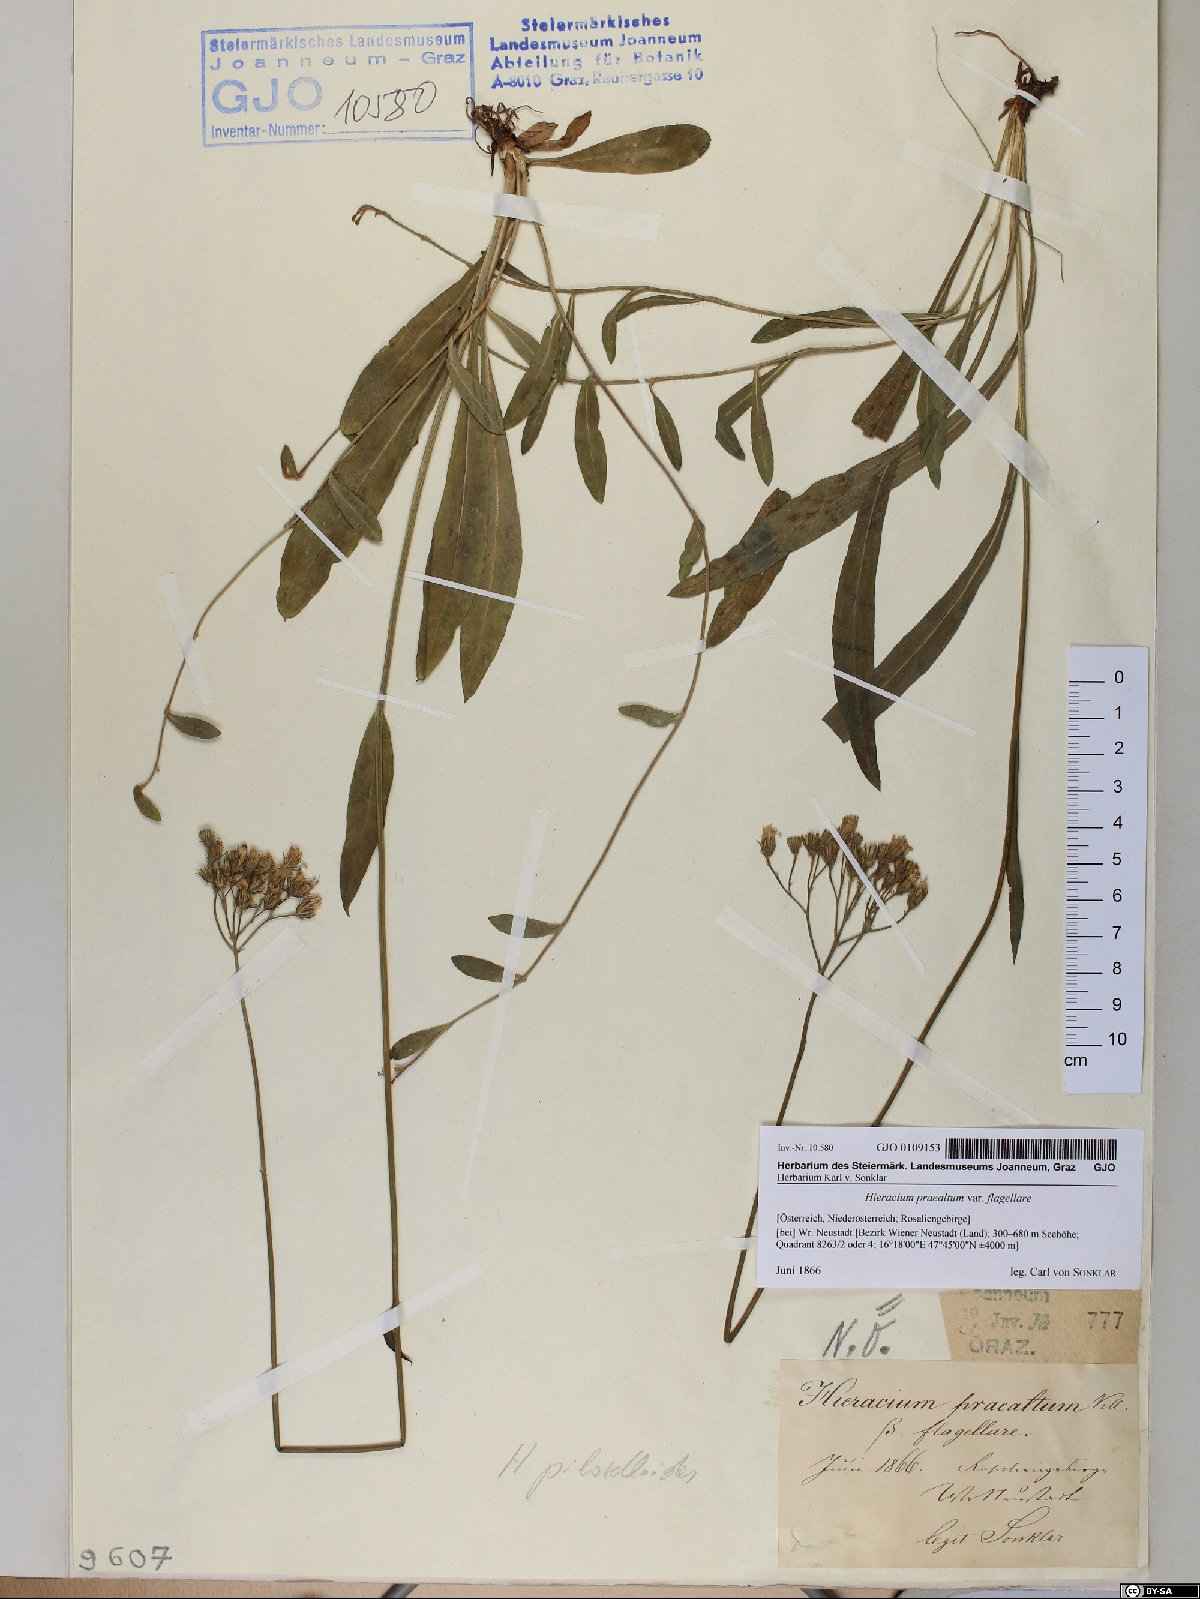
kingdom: Plantae
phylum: Tracheophyta
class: Magnoliopsida
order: Asterales
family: Asteraceae
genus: Hieracium
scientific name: Hieracium praealtum
